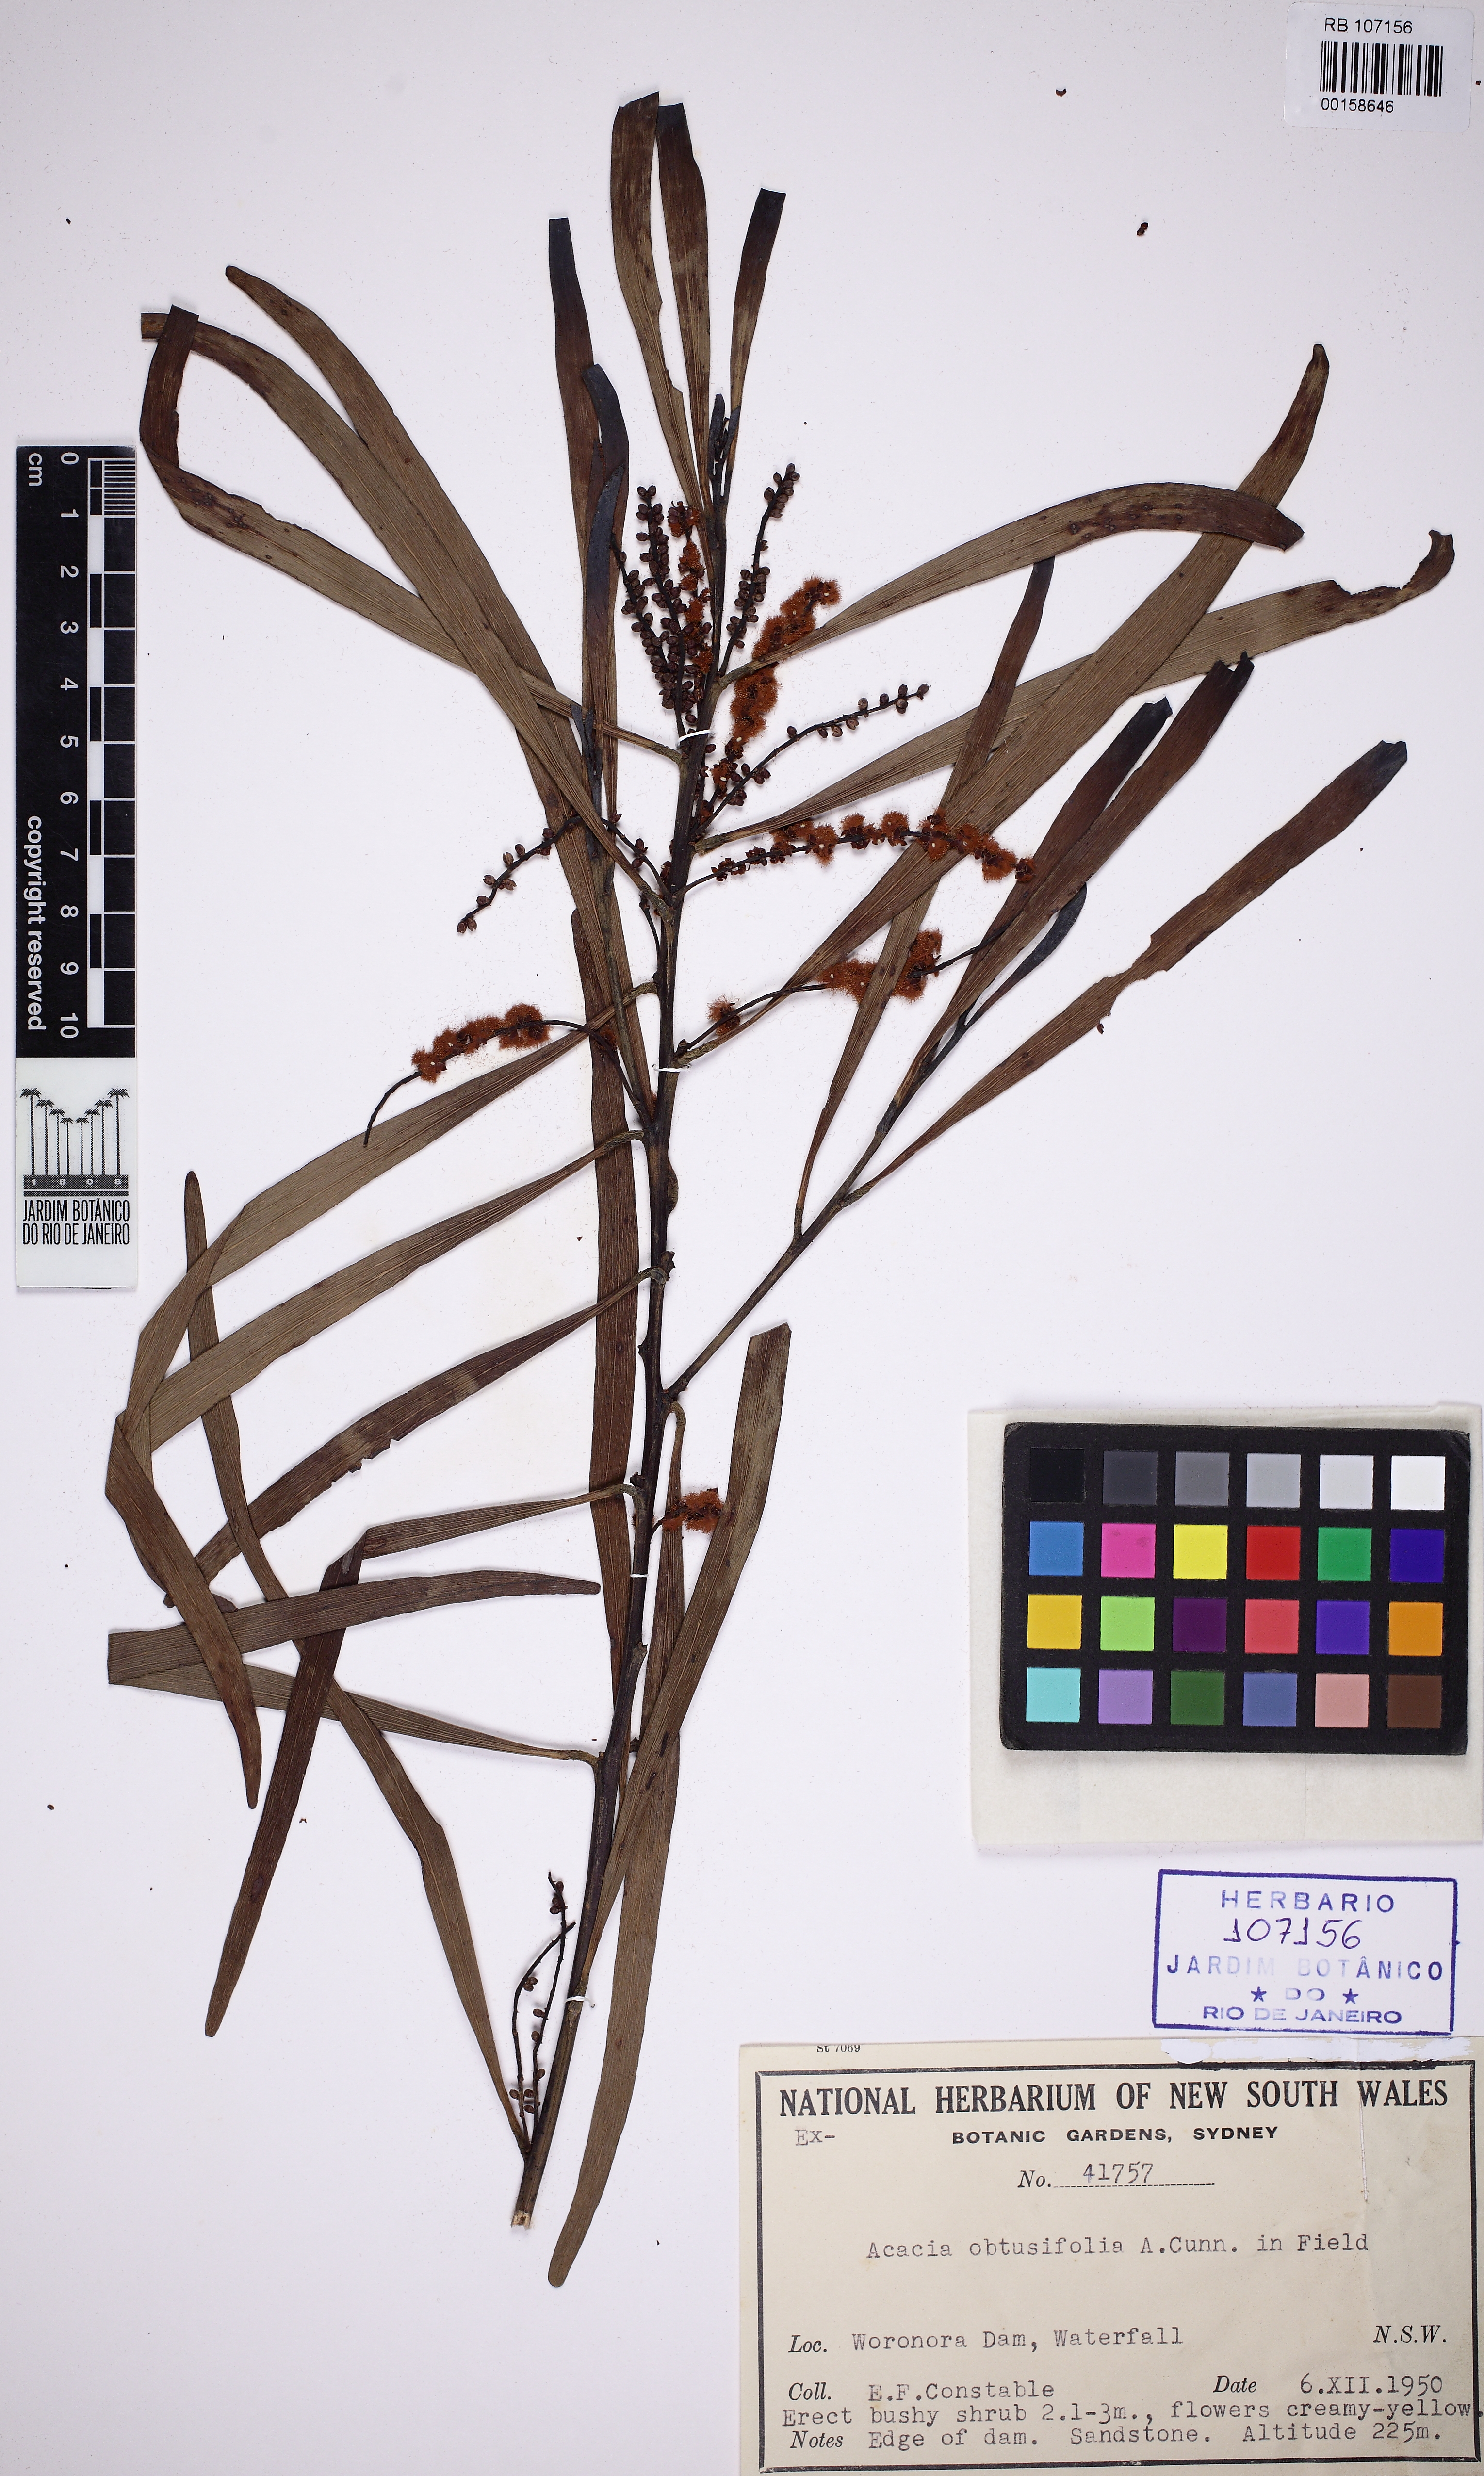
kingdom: Plantae
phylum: Tracheophyta
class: Magnoliopsida
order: Fabales
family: Fabaceae
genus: Acacia
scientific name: Acacia obtusifolia
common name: Stiff-leaf wattle
